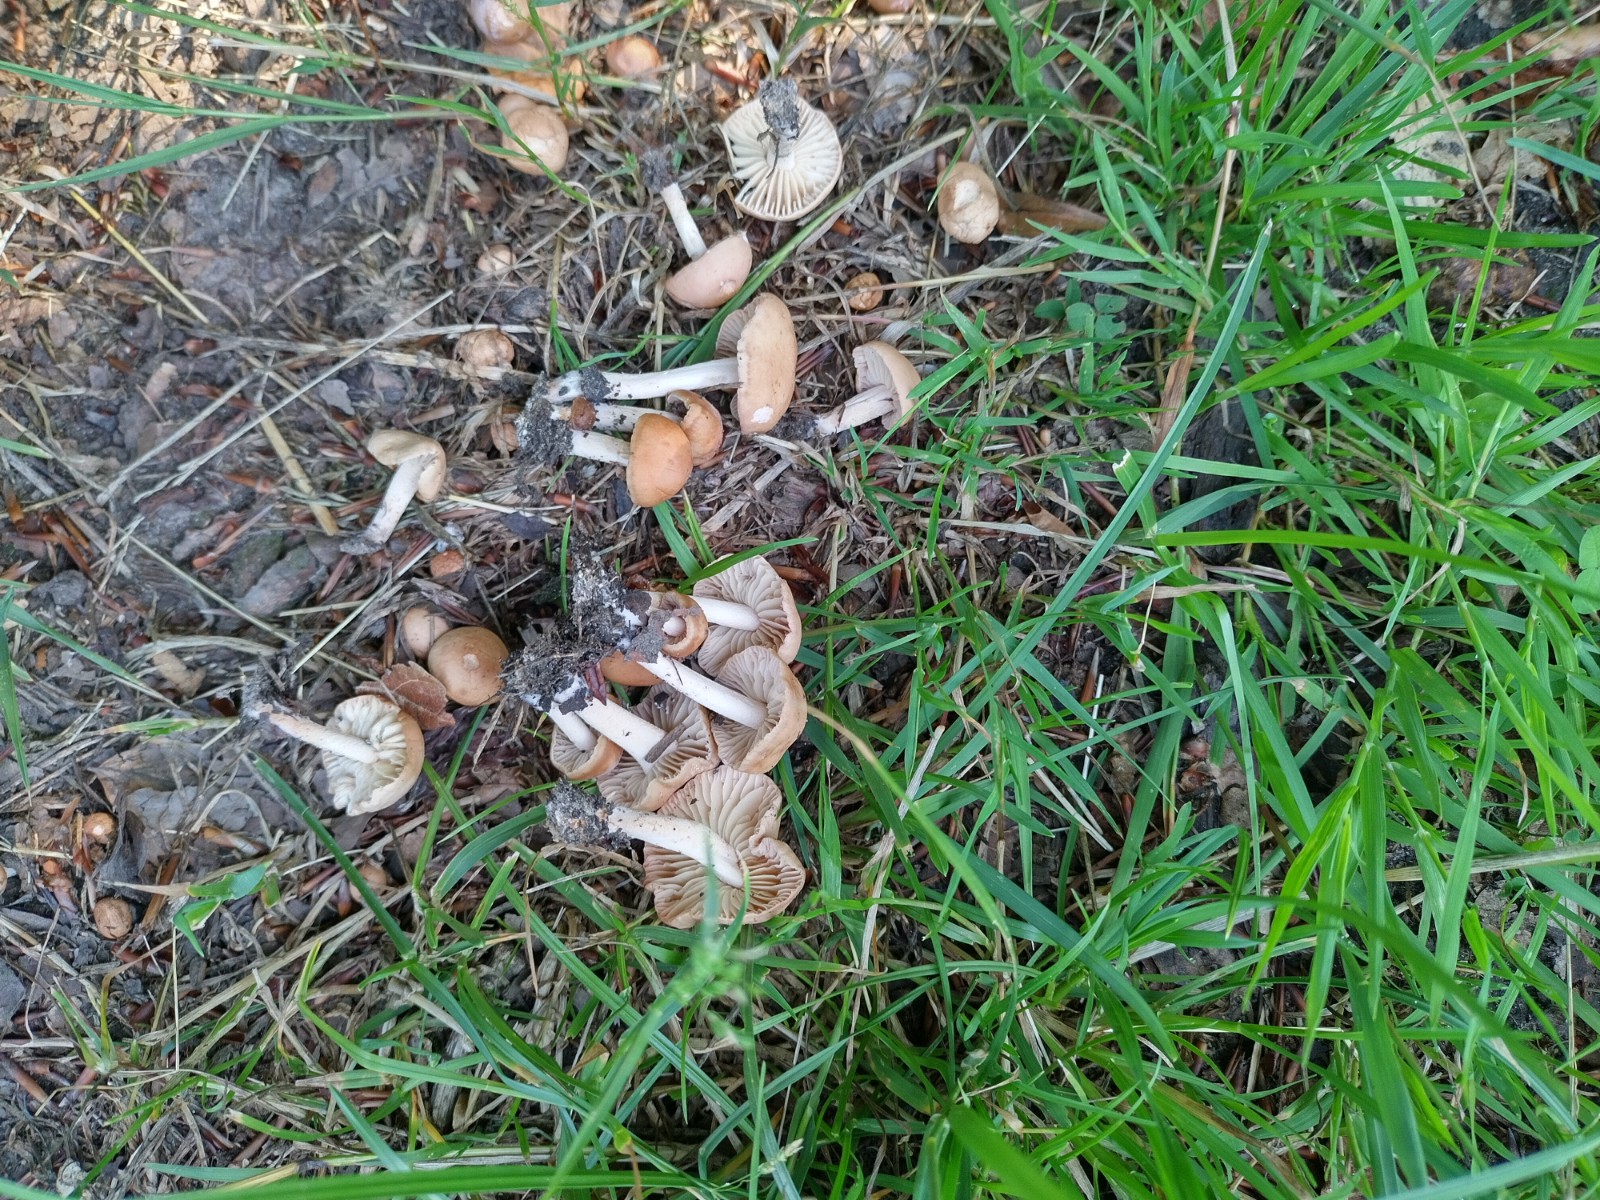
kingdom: Fungi
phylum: Basidiomycota
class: Agaricomycetes
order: Agaricales
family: Marasmiaceae
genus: Marasmius
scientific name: Marasmius oreades
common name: elledans-bruskhat
